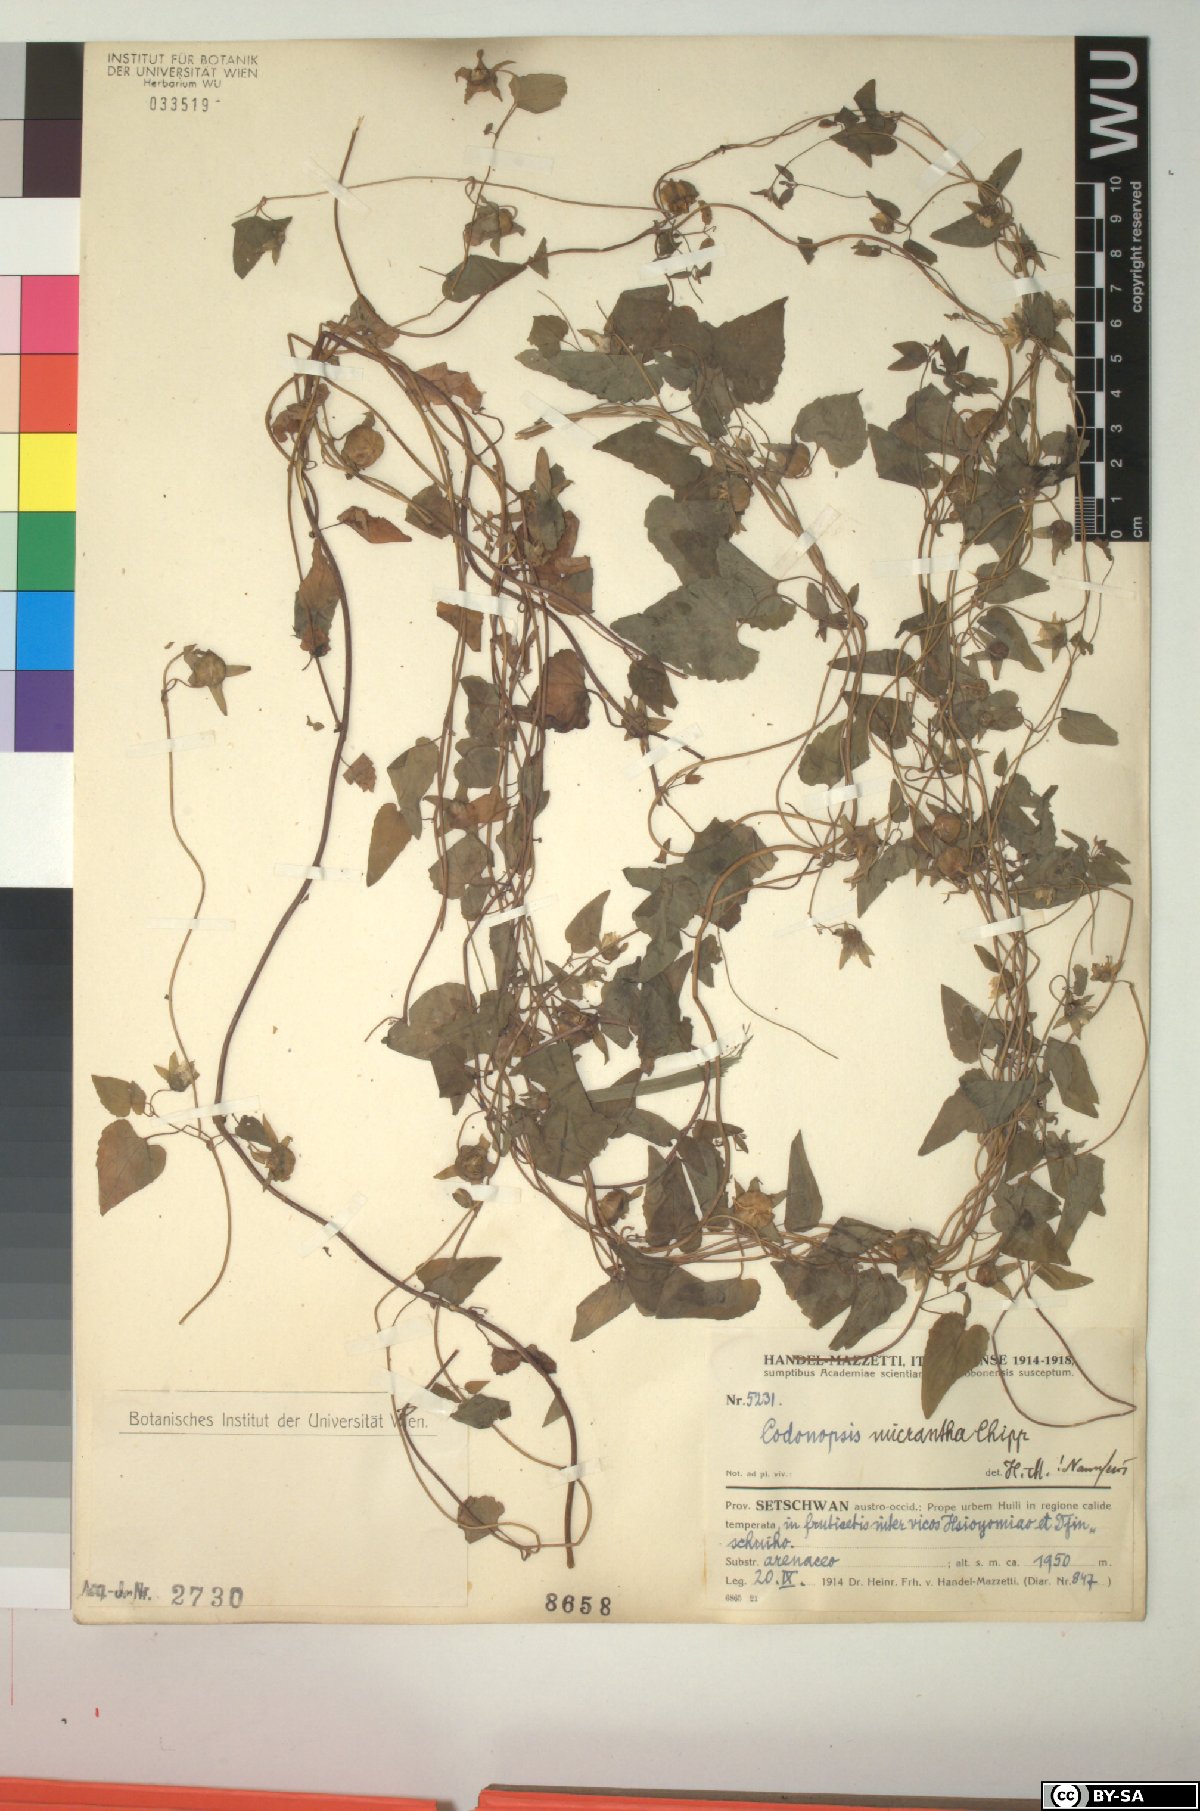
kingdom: Plantae
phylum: Tracheophyta
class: Magnoliopsida
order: Asterales
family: Campanulaceae
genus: Codonopsis
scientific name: Codonopsis micrantha
